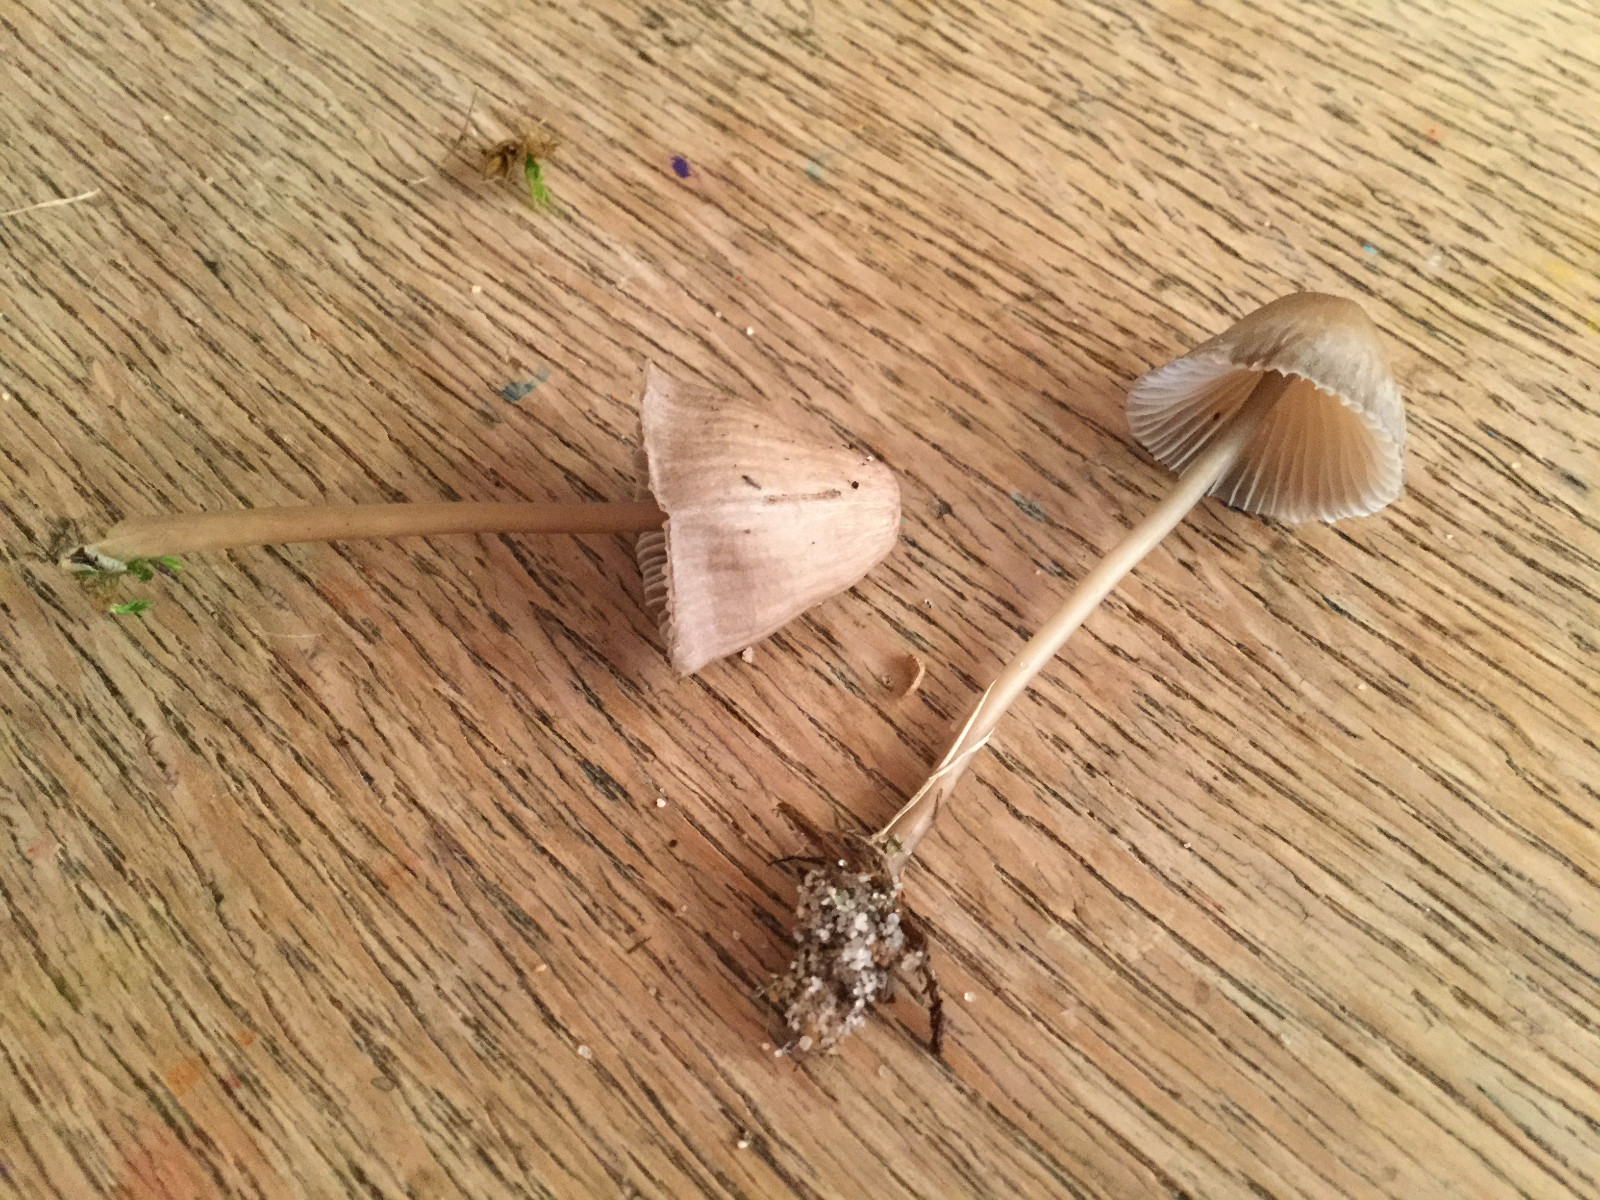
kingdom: Fungi
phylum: Basidiomycota
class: Agaricomycetes
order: Agaricales
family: Mycenaceae
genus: Mycena
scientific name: Mycena
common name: huesvamp
